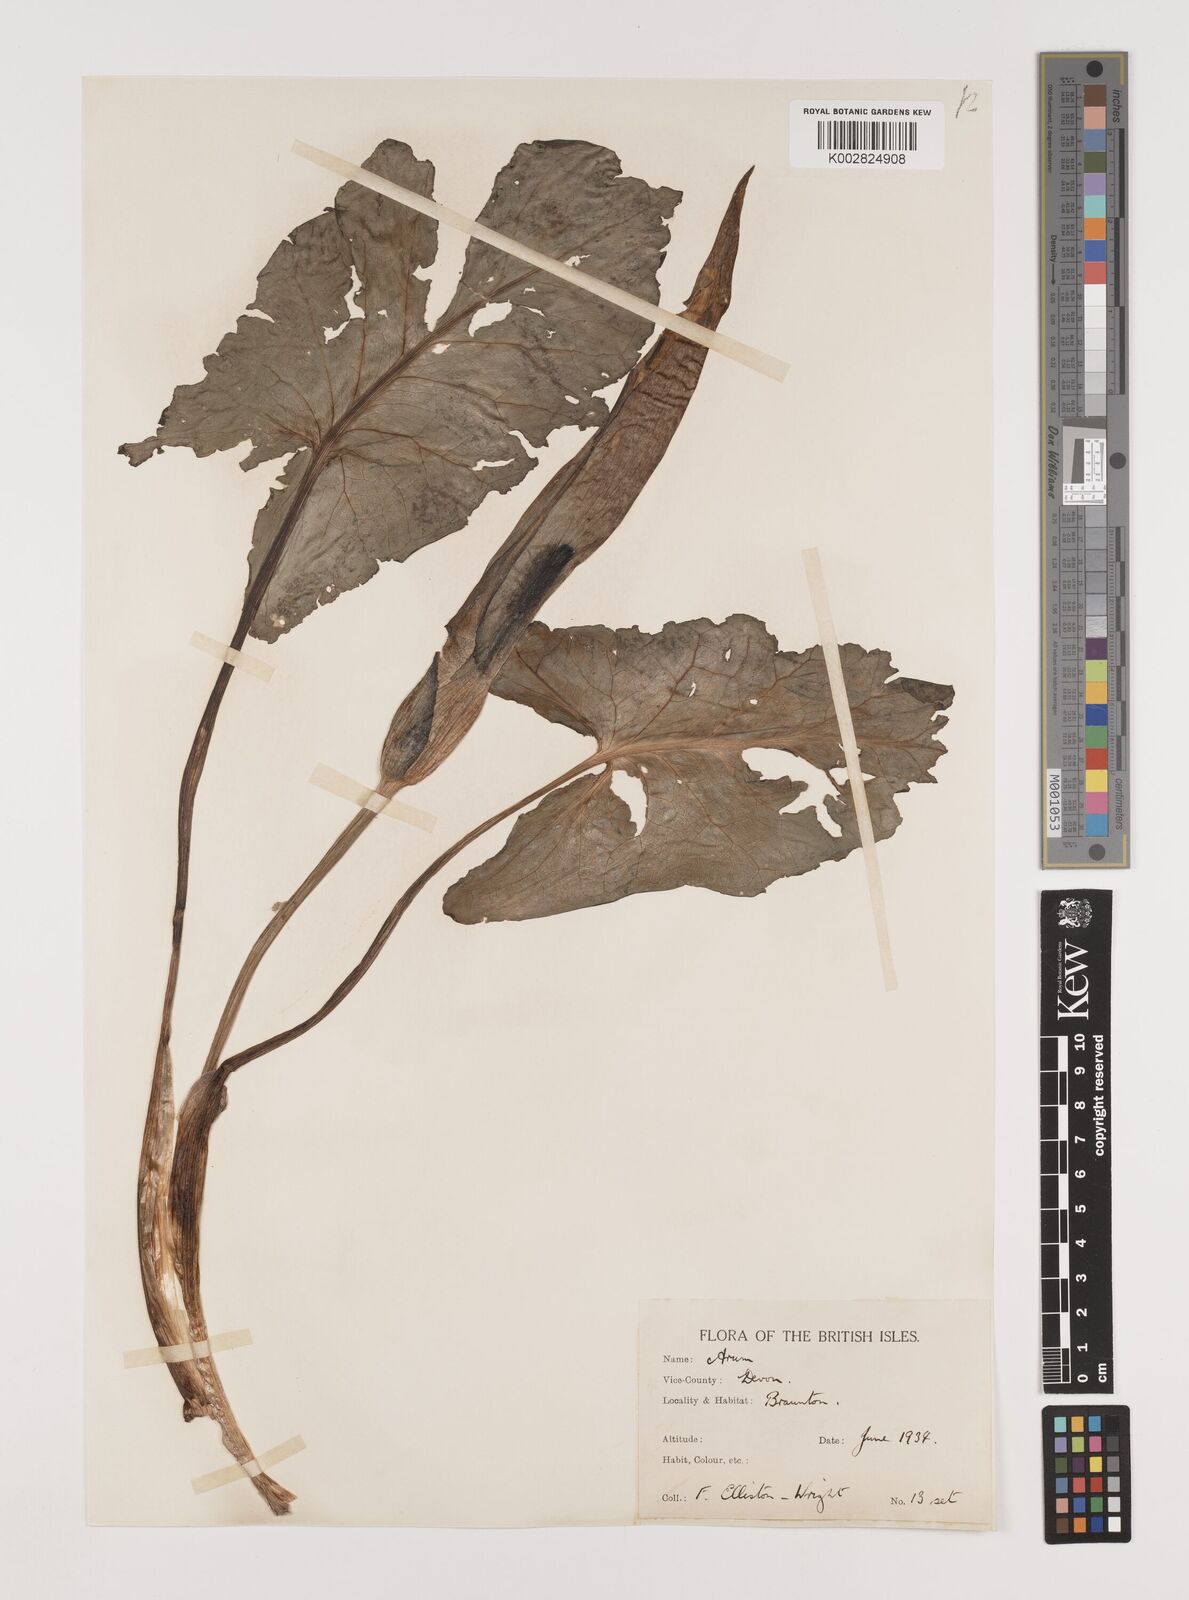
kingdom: Plantae
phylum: Tracheophyta
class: Liliopsida
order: Alismatales
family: Araceae
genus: Arum
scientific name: Arum italicum
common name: Italian lords-and-ladies
